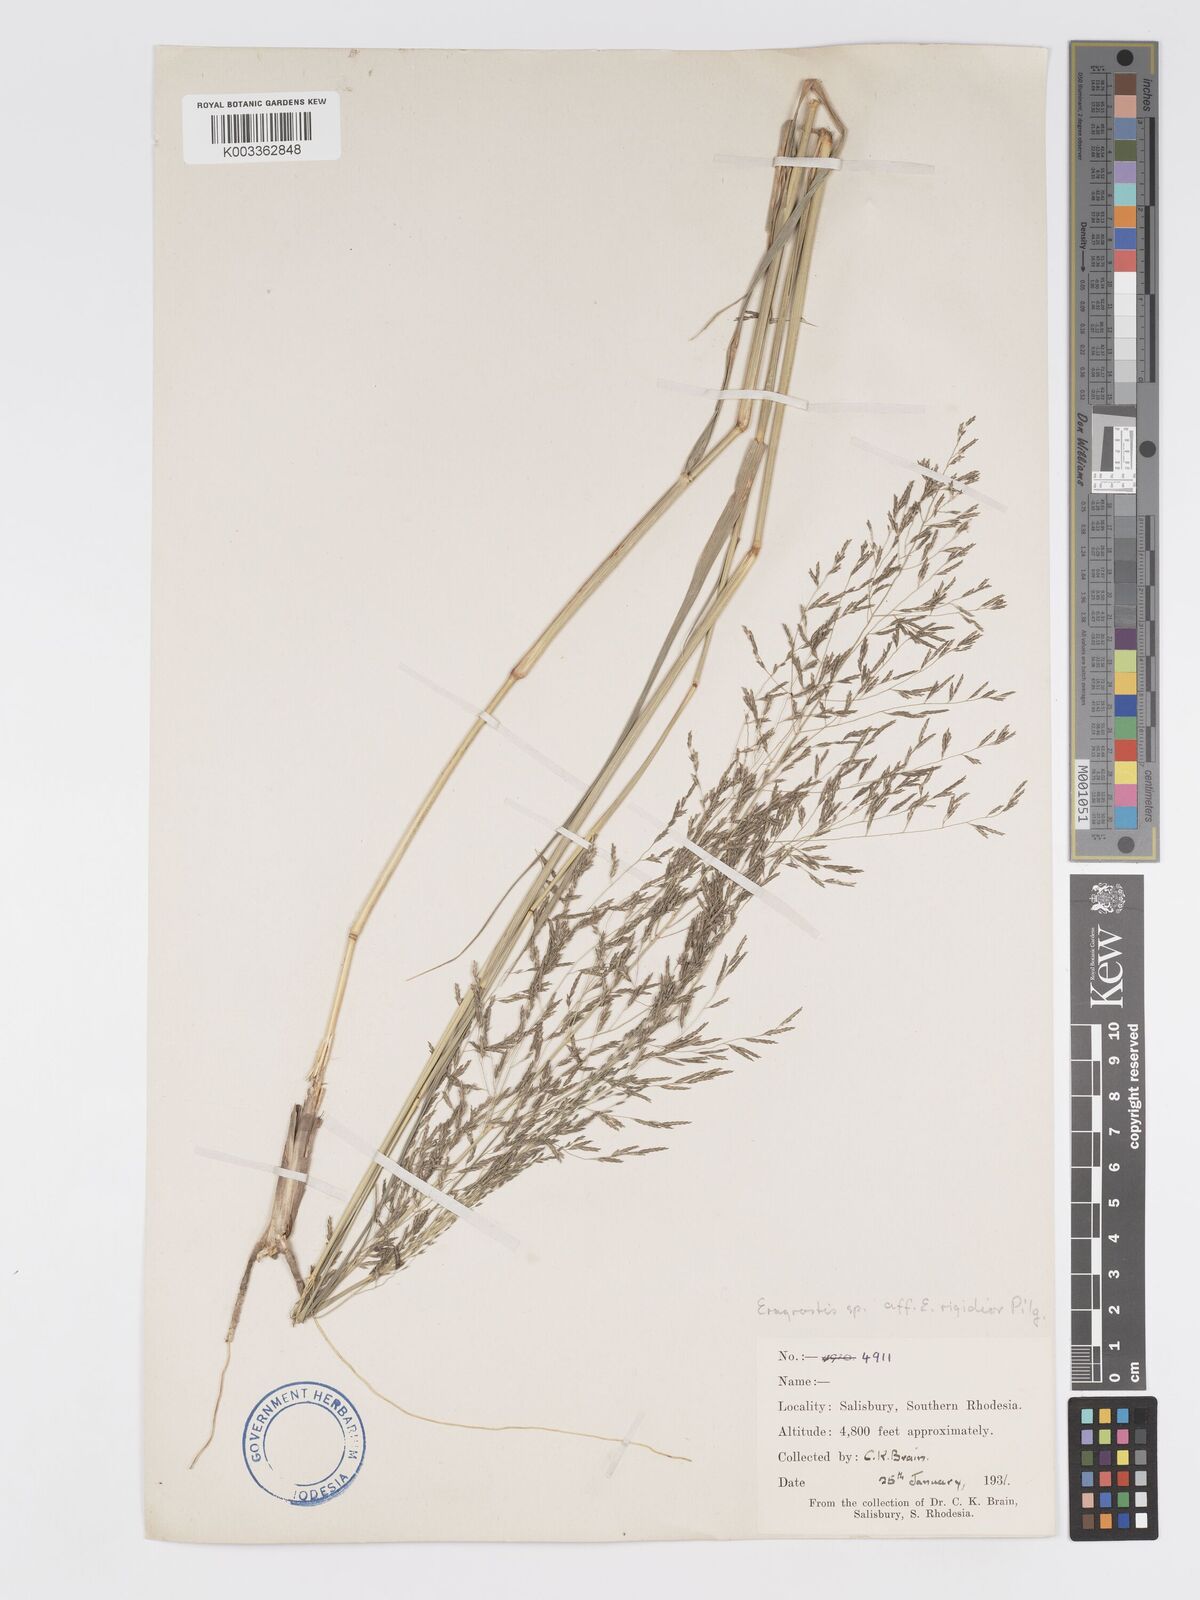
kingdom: Plantae
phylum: Tracheophyta
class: Liliopsida
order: Poales
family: Poaceae
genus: Eragrostis
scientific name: Eragrostis cylindriflora
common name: Cylinderflower lovegrass
